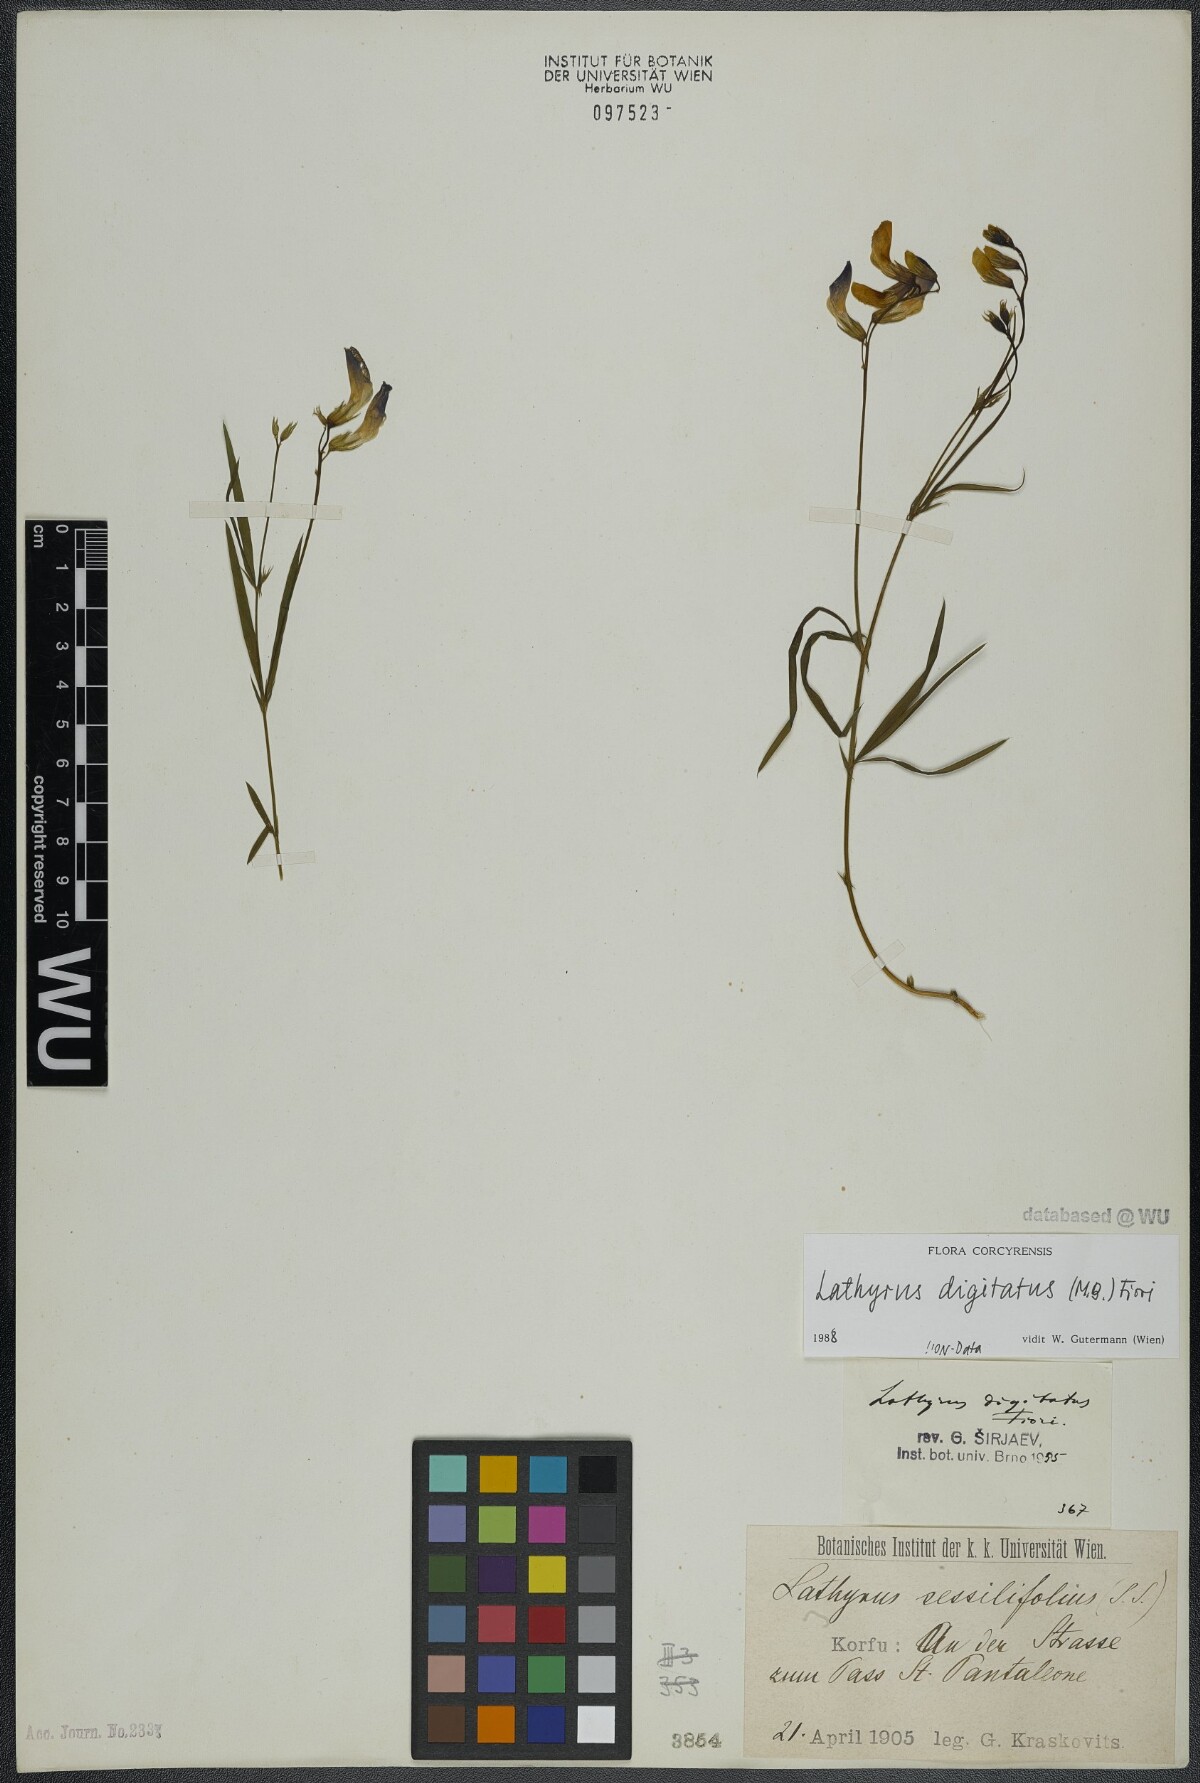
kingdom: Plantae
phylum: Tracheophyta
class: Magnoliopsida
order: Fabales
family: Fabaceae
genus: Lathyrus
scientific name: Lathyrus digitatus
